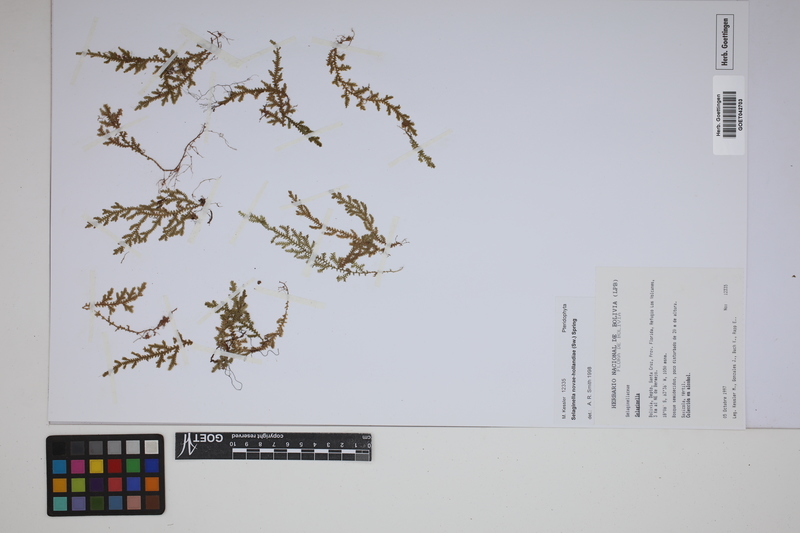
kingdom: Plantae
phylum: Tracheophyta
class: Lycopodiopsida
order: Selaginellales
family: Selaginellaceae
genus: Selaginella
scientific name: Selaginella novae-hollandiae
